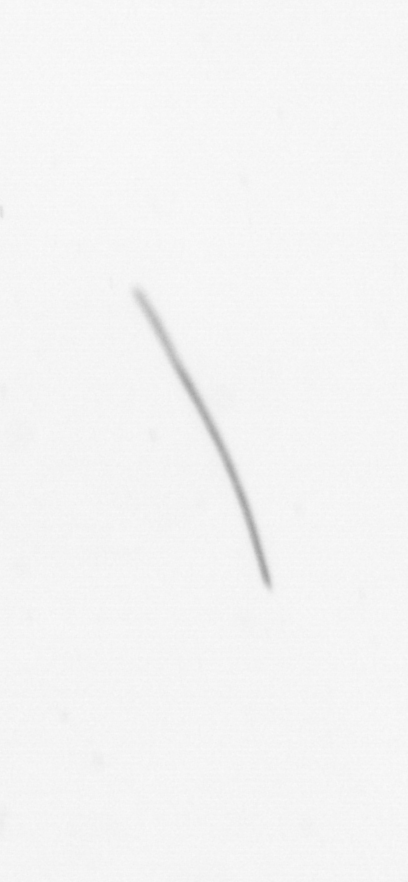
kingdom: Chromista
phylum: Ochrophyta
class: Bacillariophyceae
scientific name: Bacillariophyceae
